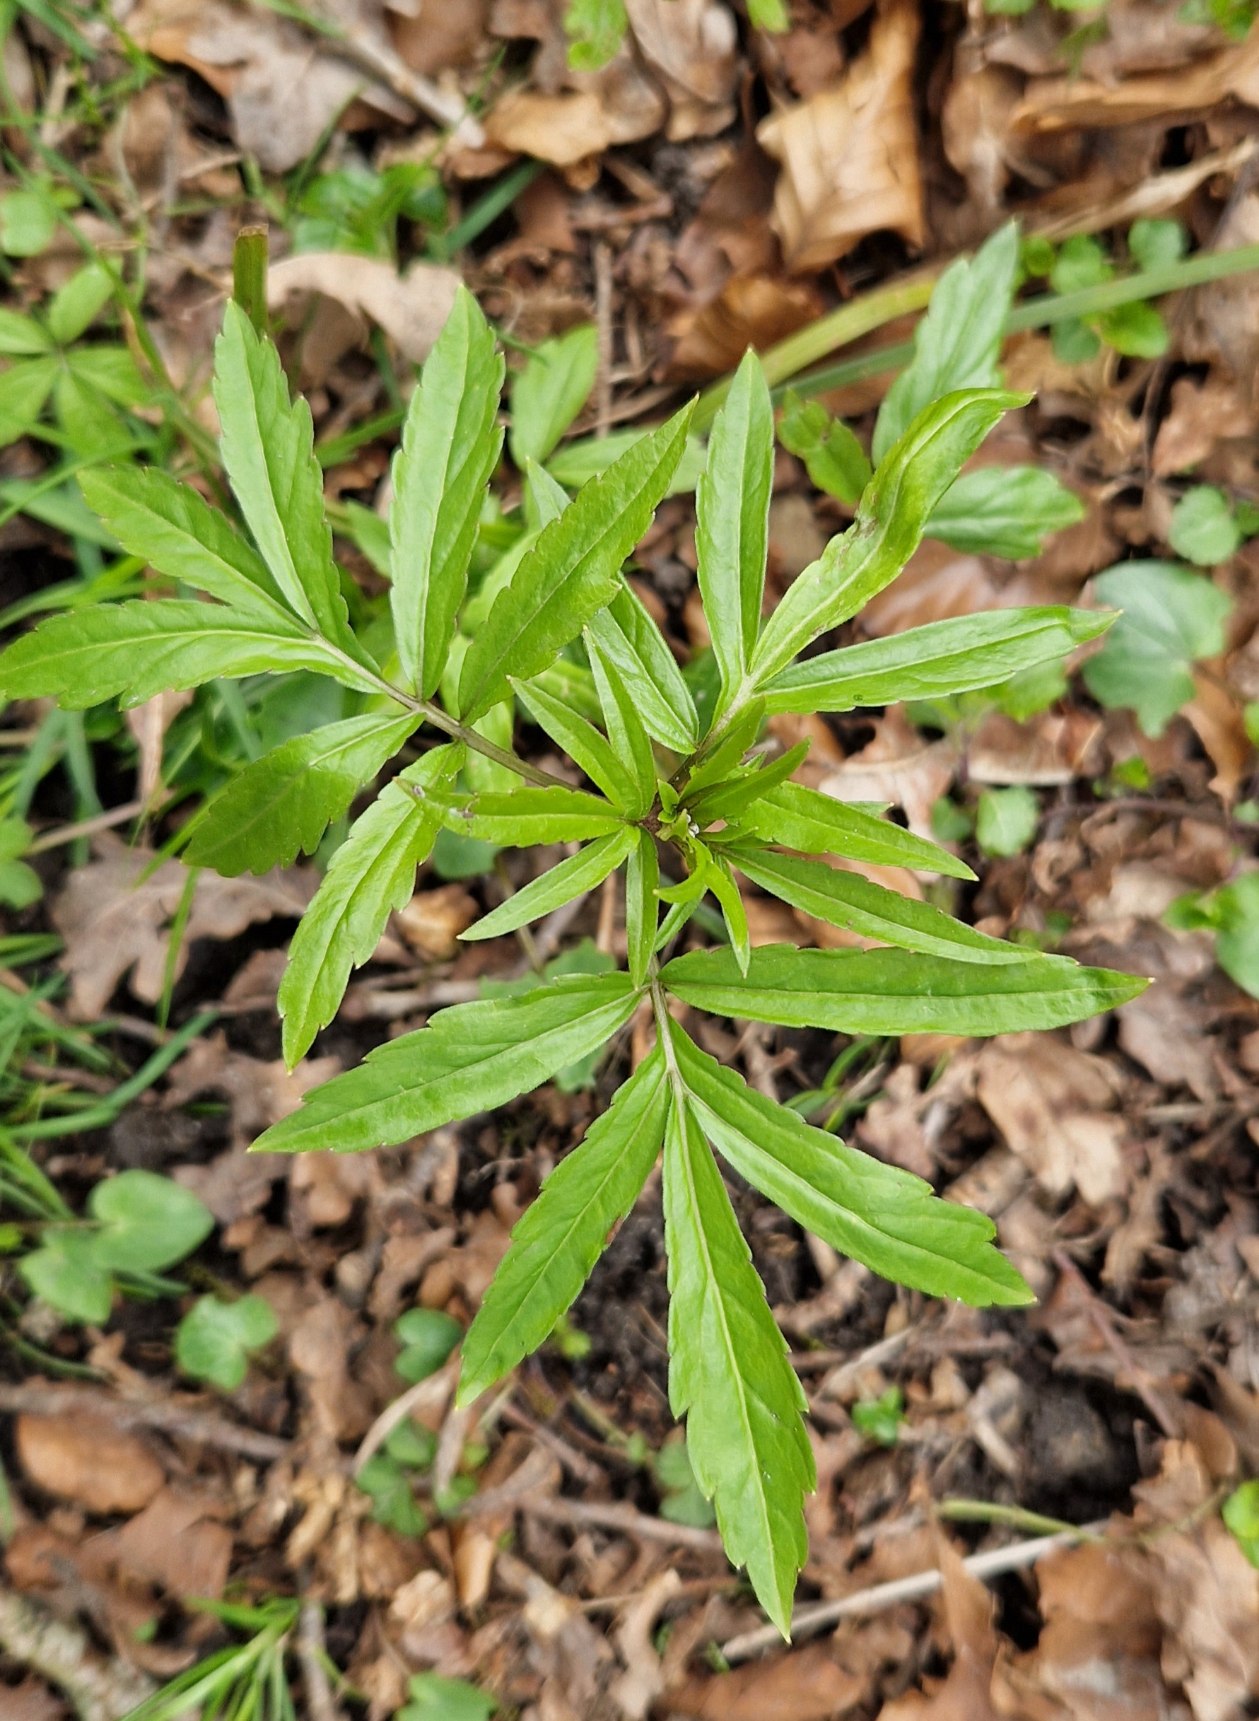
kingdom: Plantae
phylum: Tracheophyta
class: Magnoliopsida
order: Brassicales
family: Brassicaceae
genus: Cardamine
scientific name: Cardamine bulbifera
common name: Tandrod
